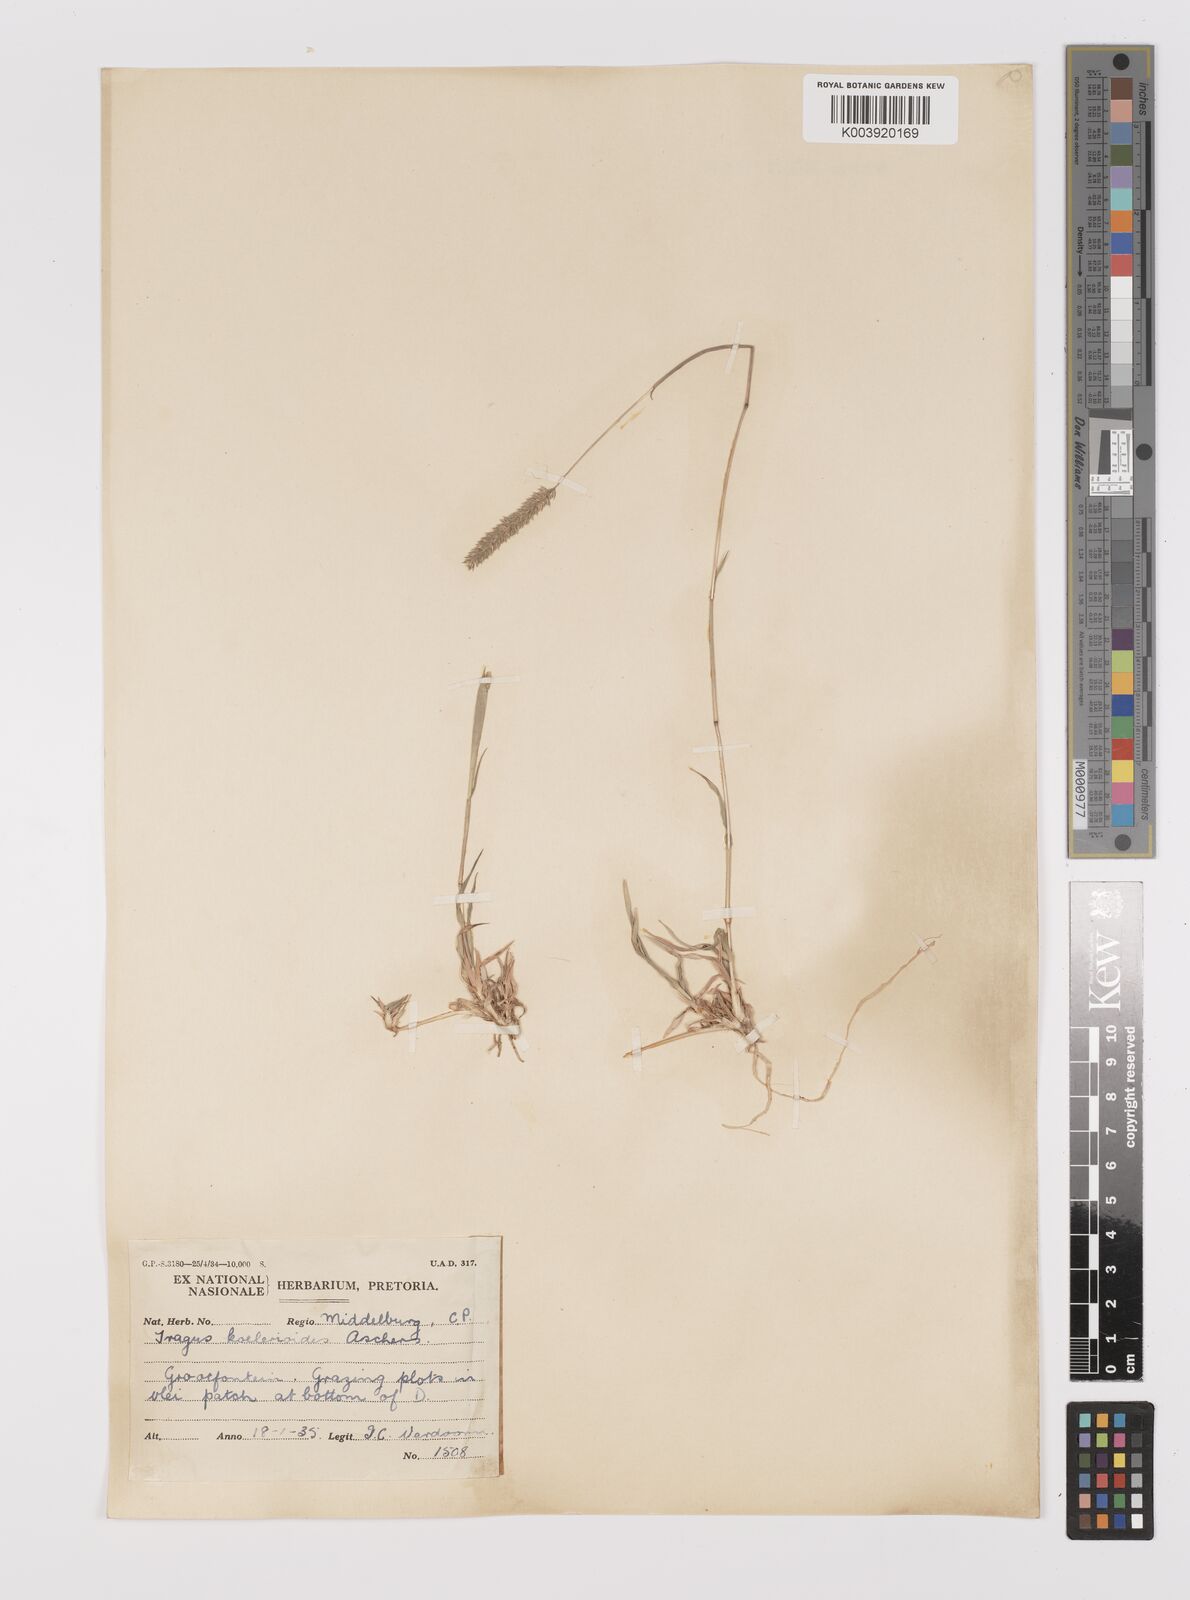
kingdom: Plantae
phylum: Tracheophyta
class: Liliopsida
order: Poales
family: Poaceae
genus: Tragus
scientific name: Tragus koelerioides
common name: Creeping carrot-seed grass
